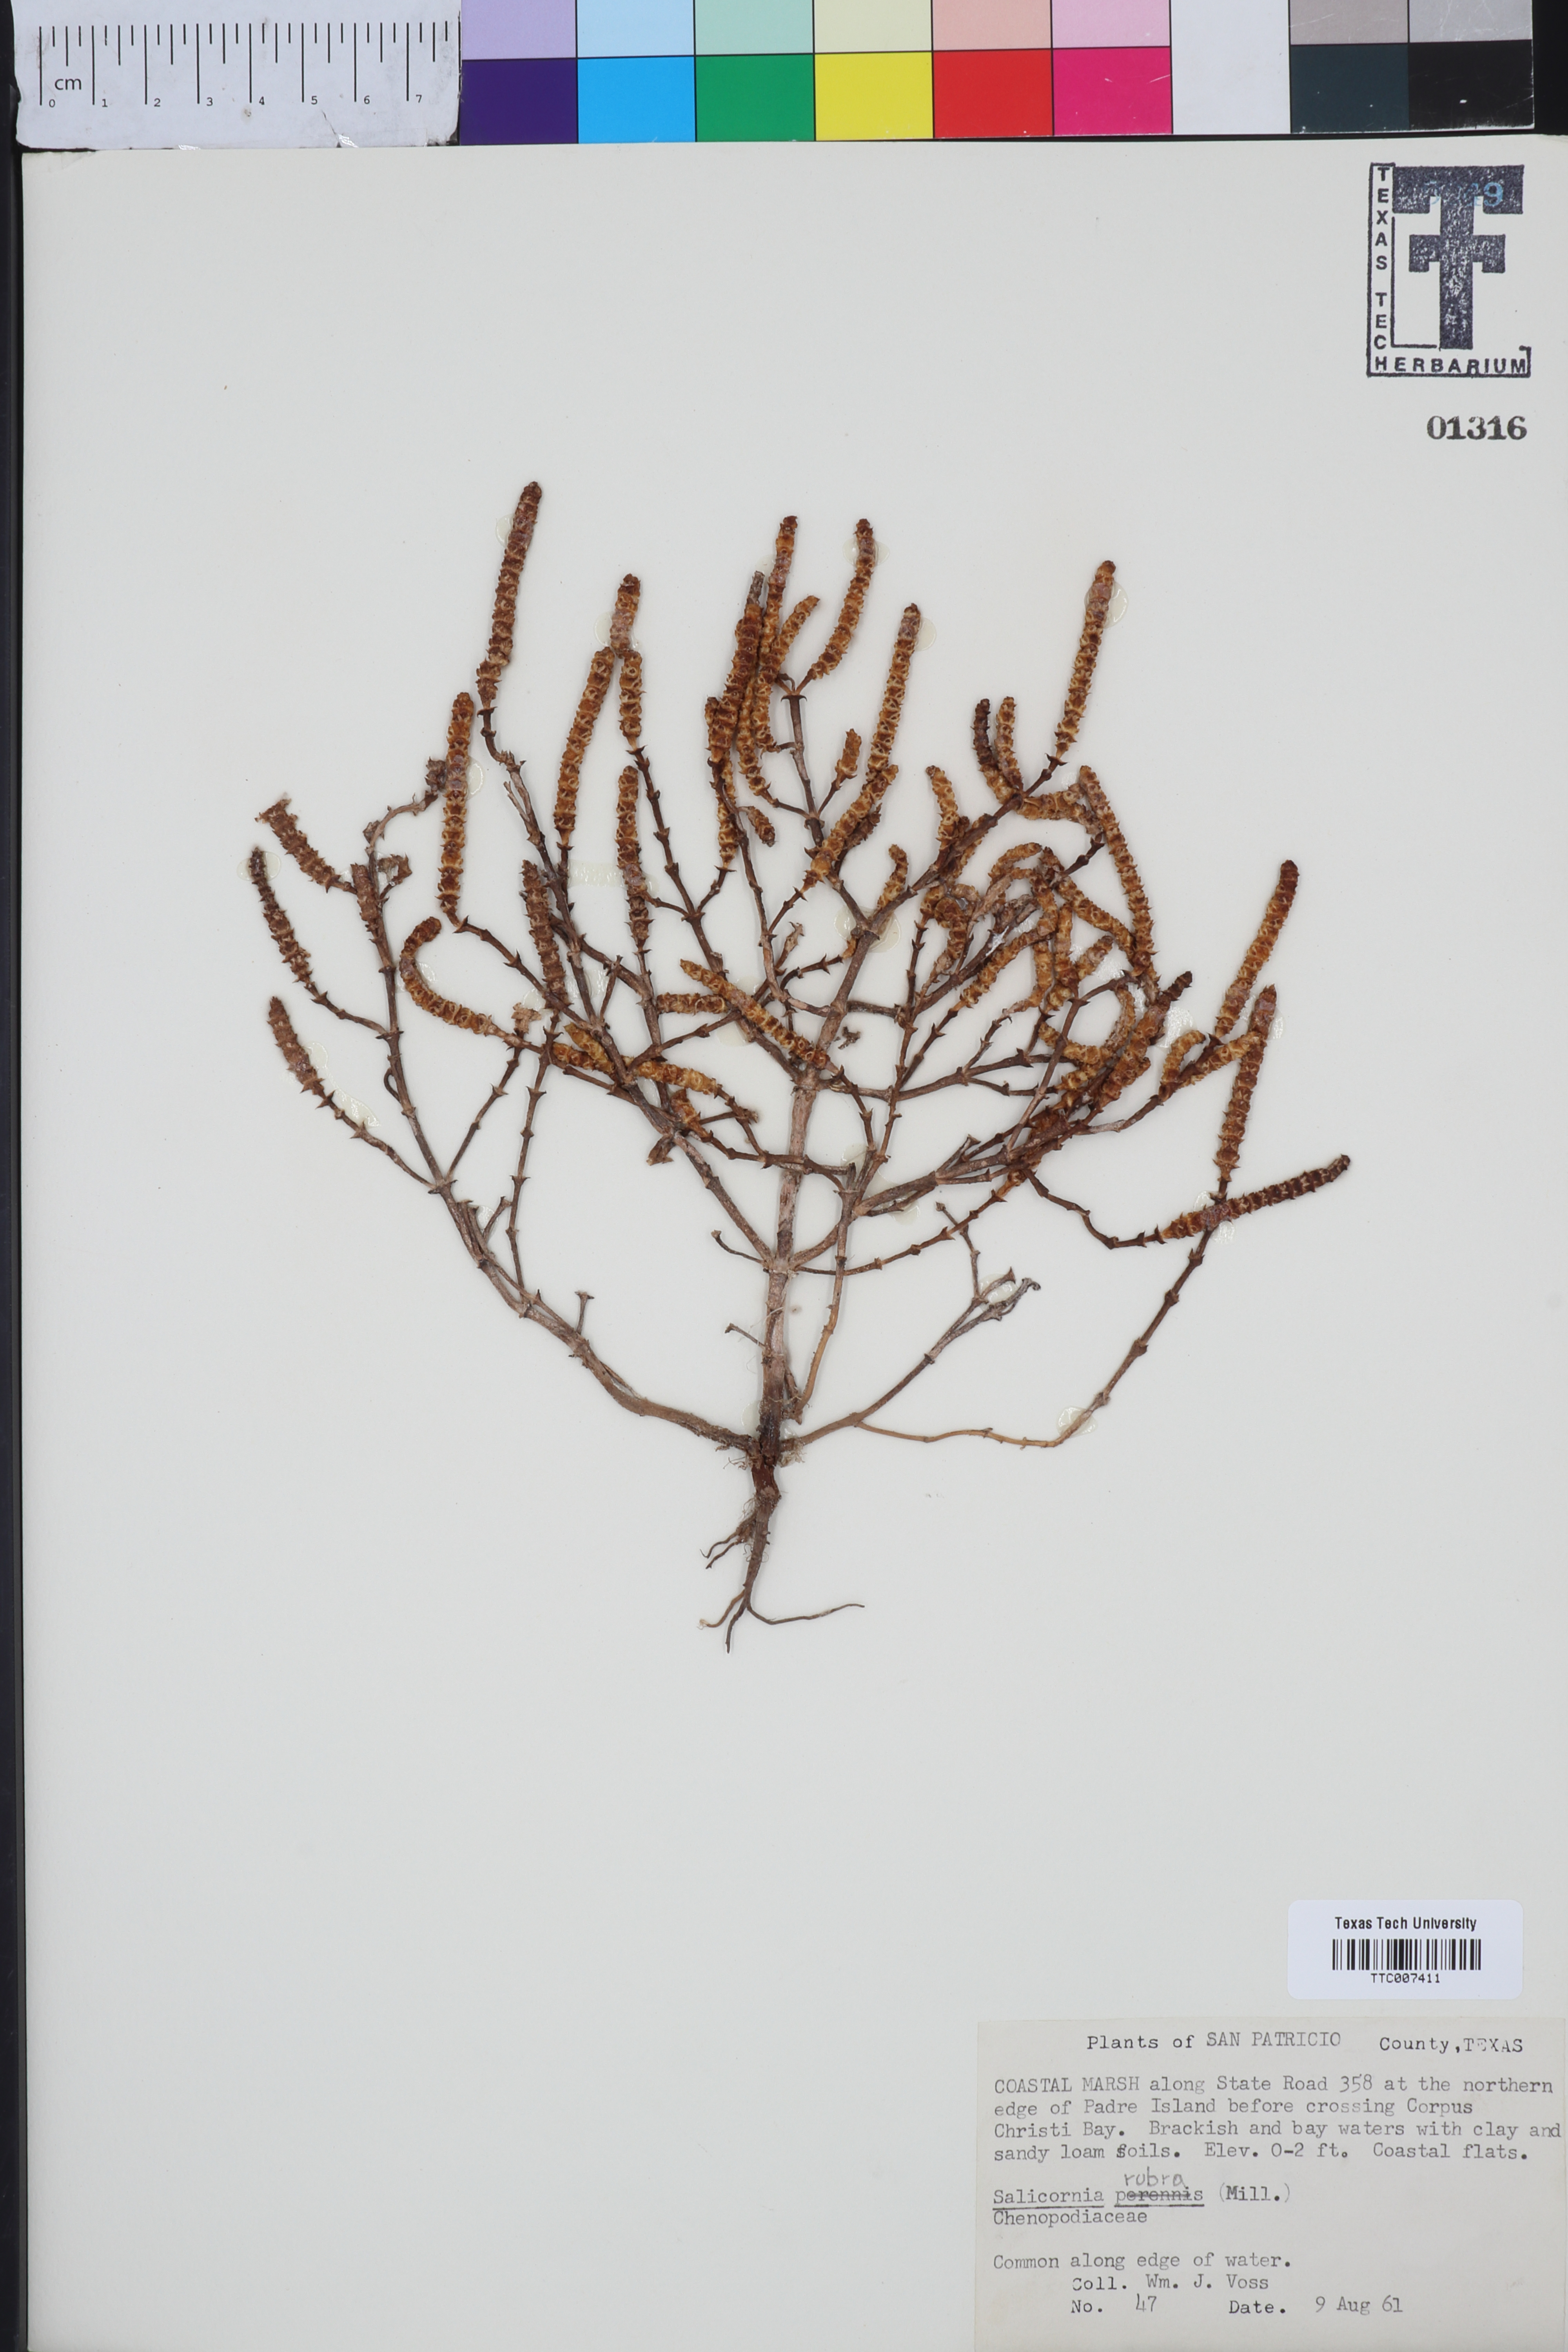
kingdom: Plantae
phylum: Tracheophyta
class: Magnoliopsida
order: Caryophyllales
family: Amaranthaceae
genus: Salicornia
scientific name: Salicornia perennis
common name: Chicken claws
